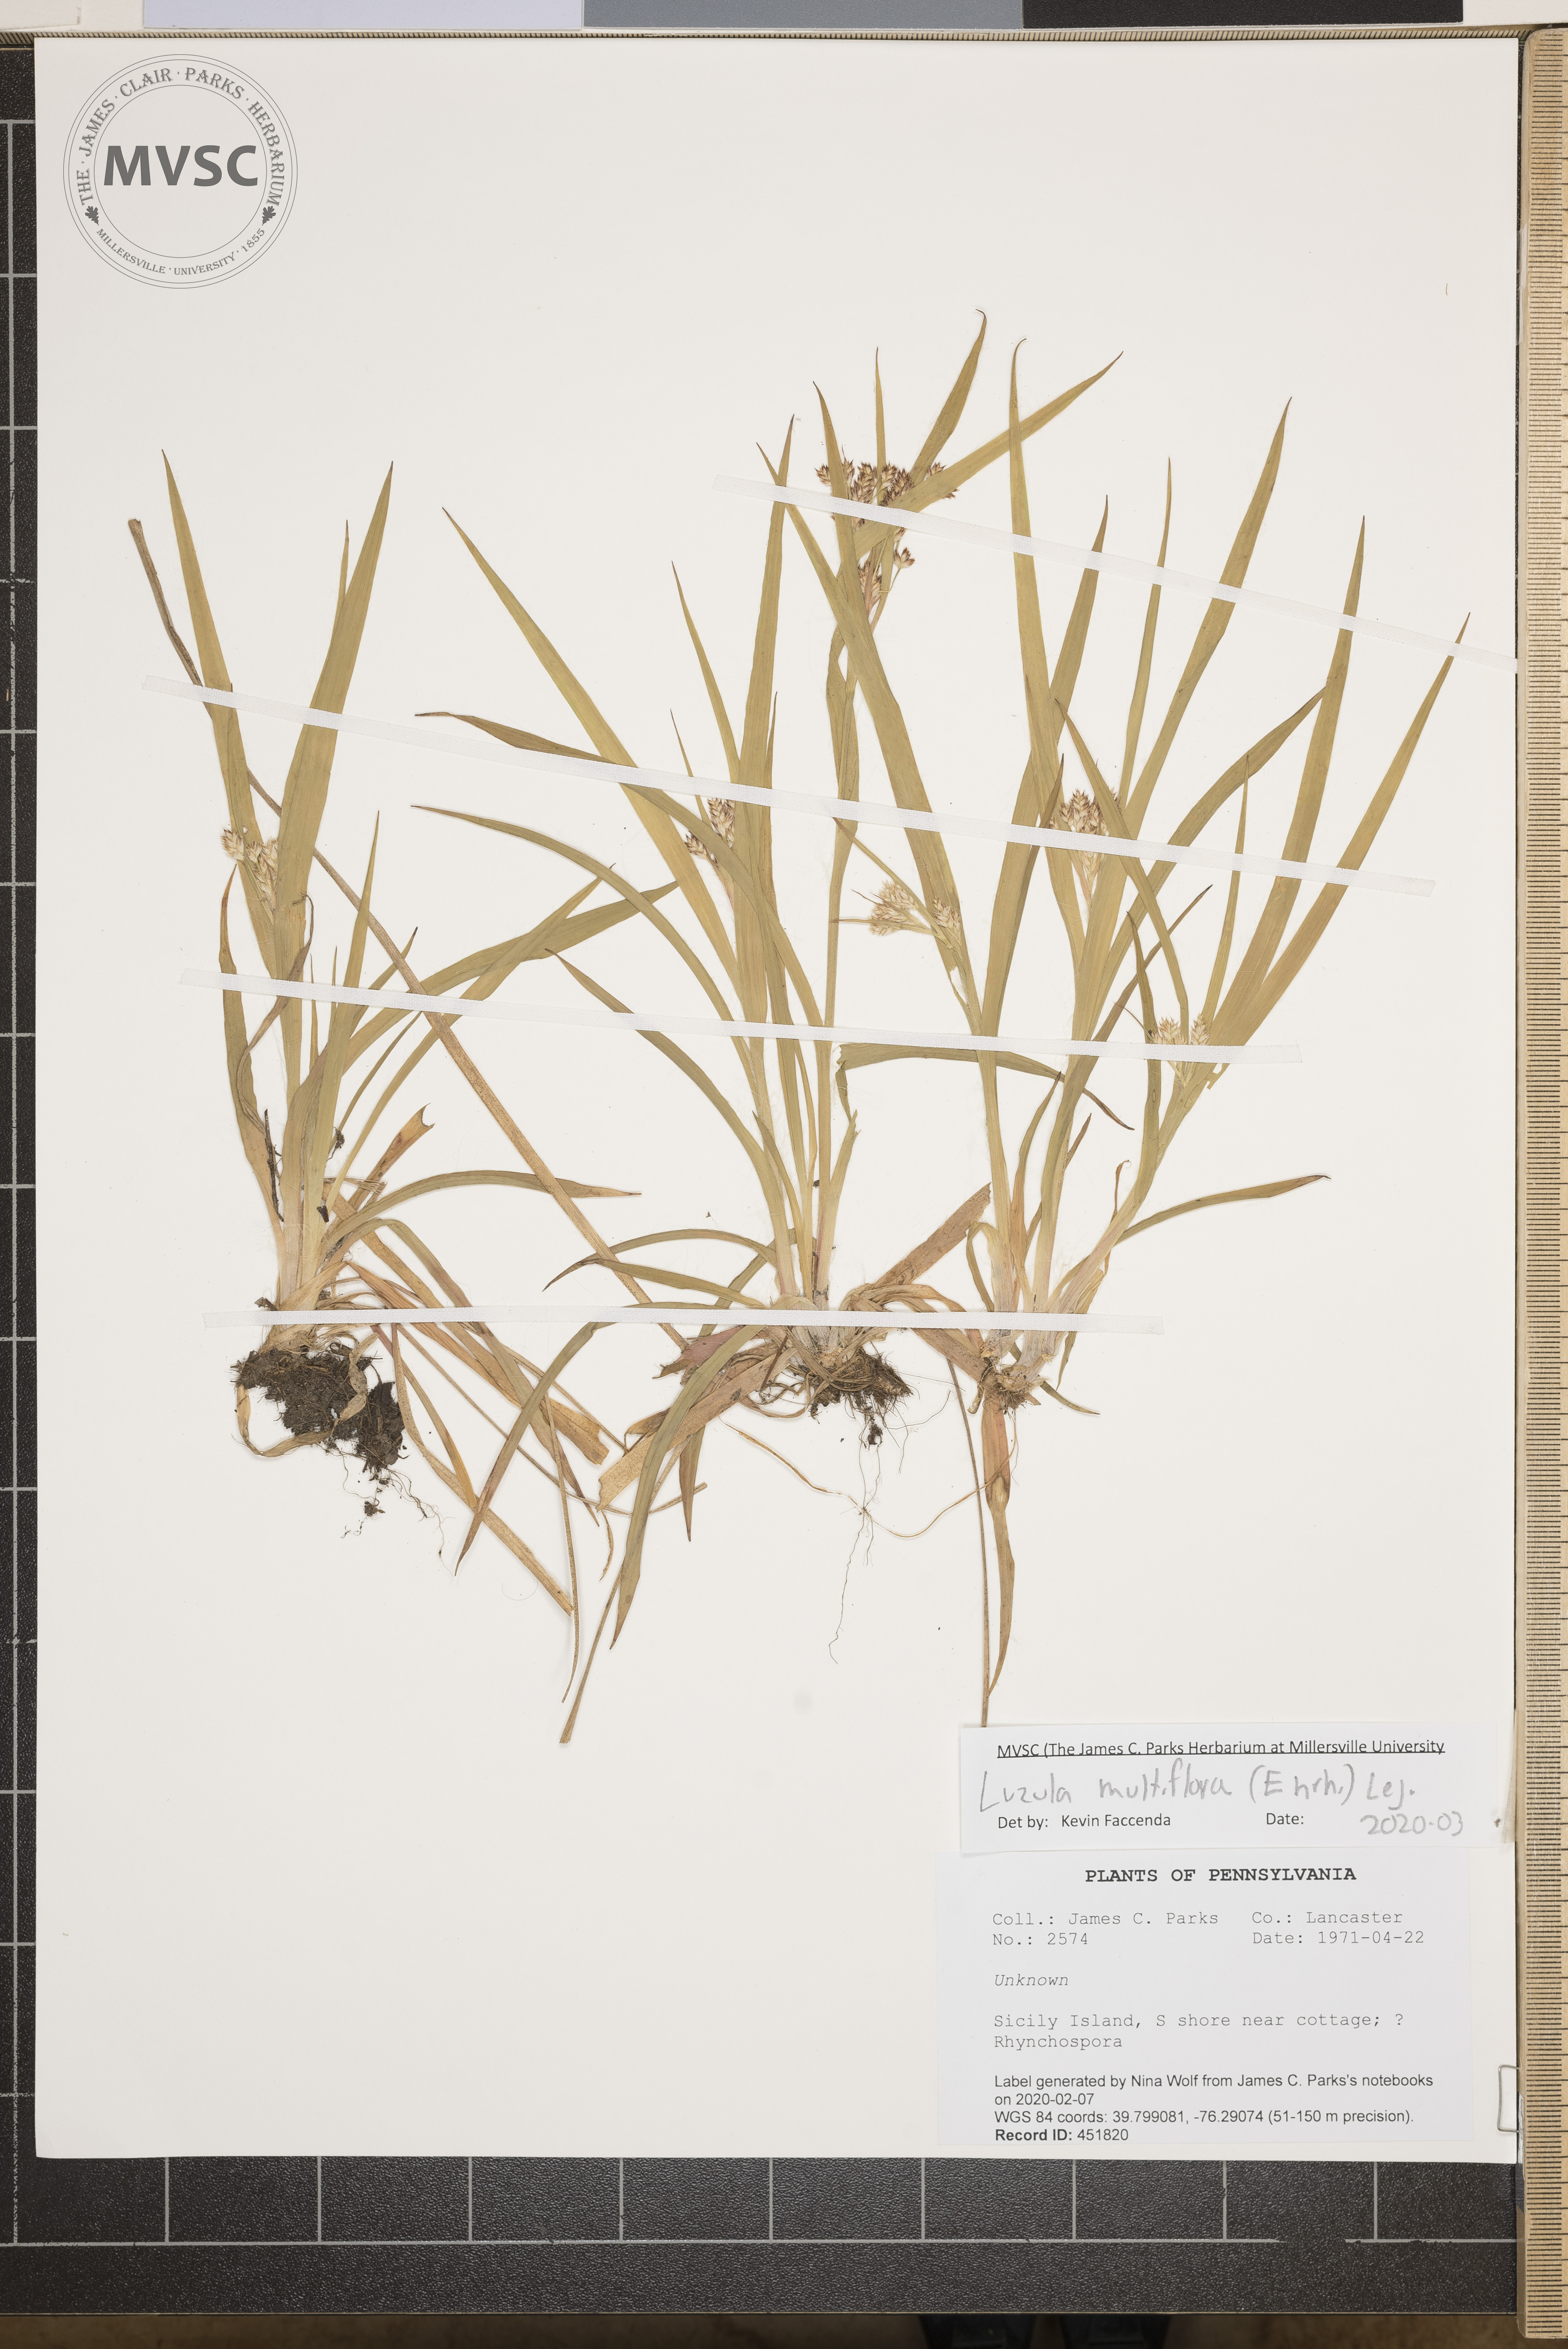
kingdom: Plantae
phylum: Tracheophyta
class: Liliopsida
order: Poales
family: Juncaceae
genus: Luzula
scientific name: Luzula multiflora
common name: Heath wood-rush
